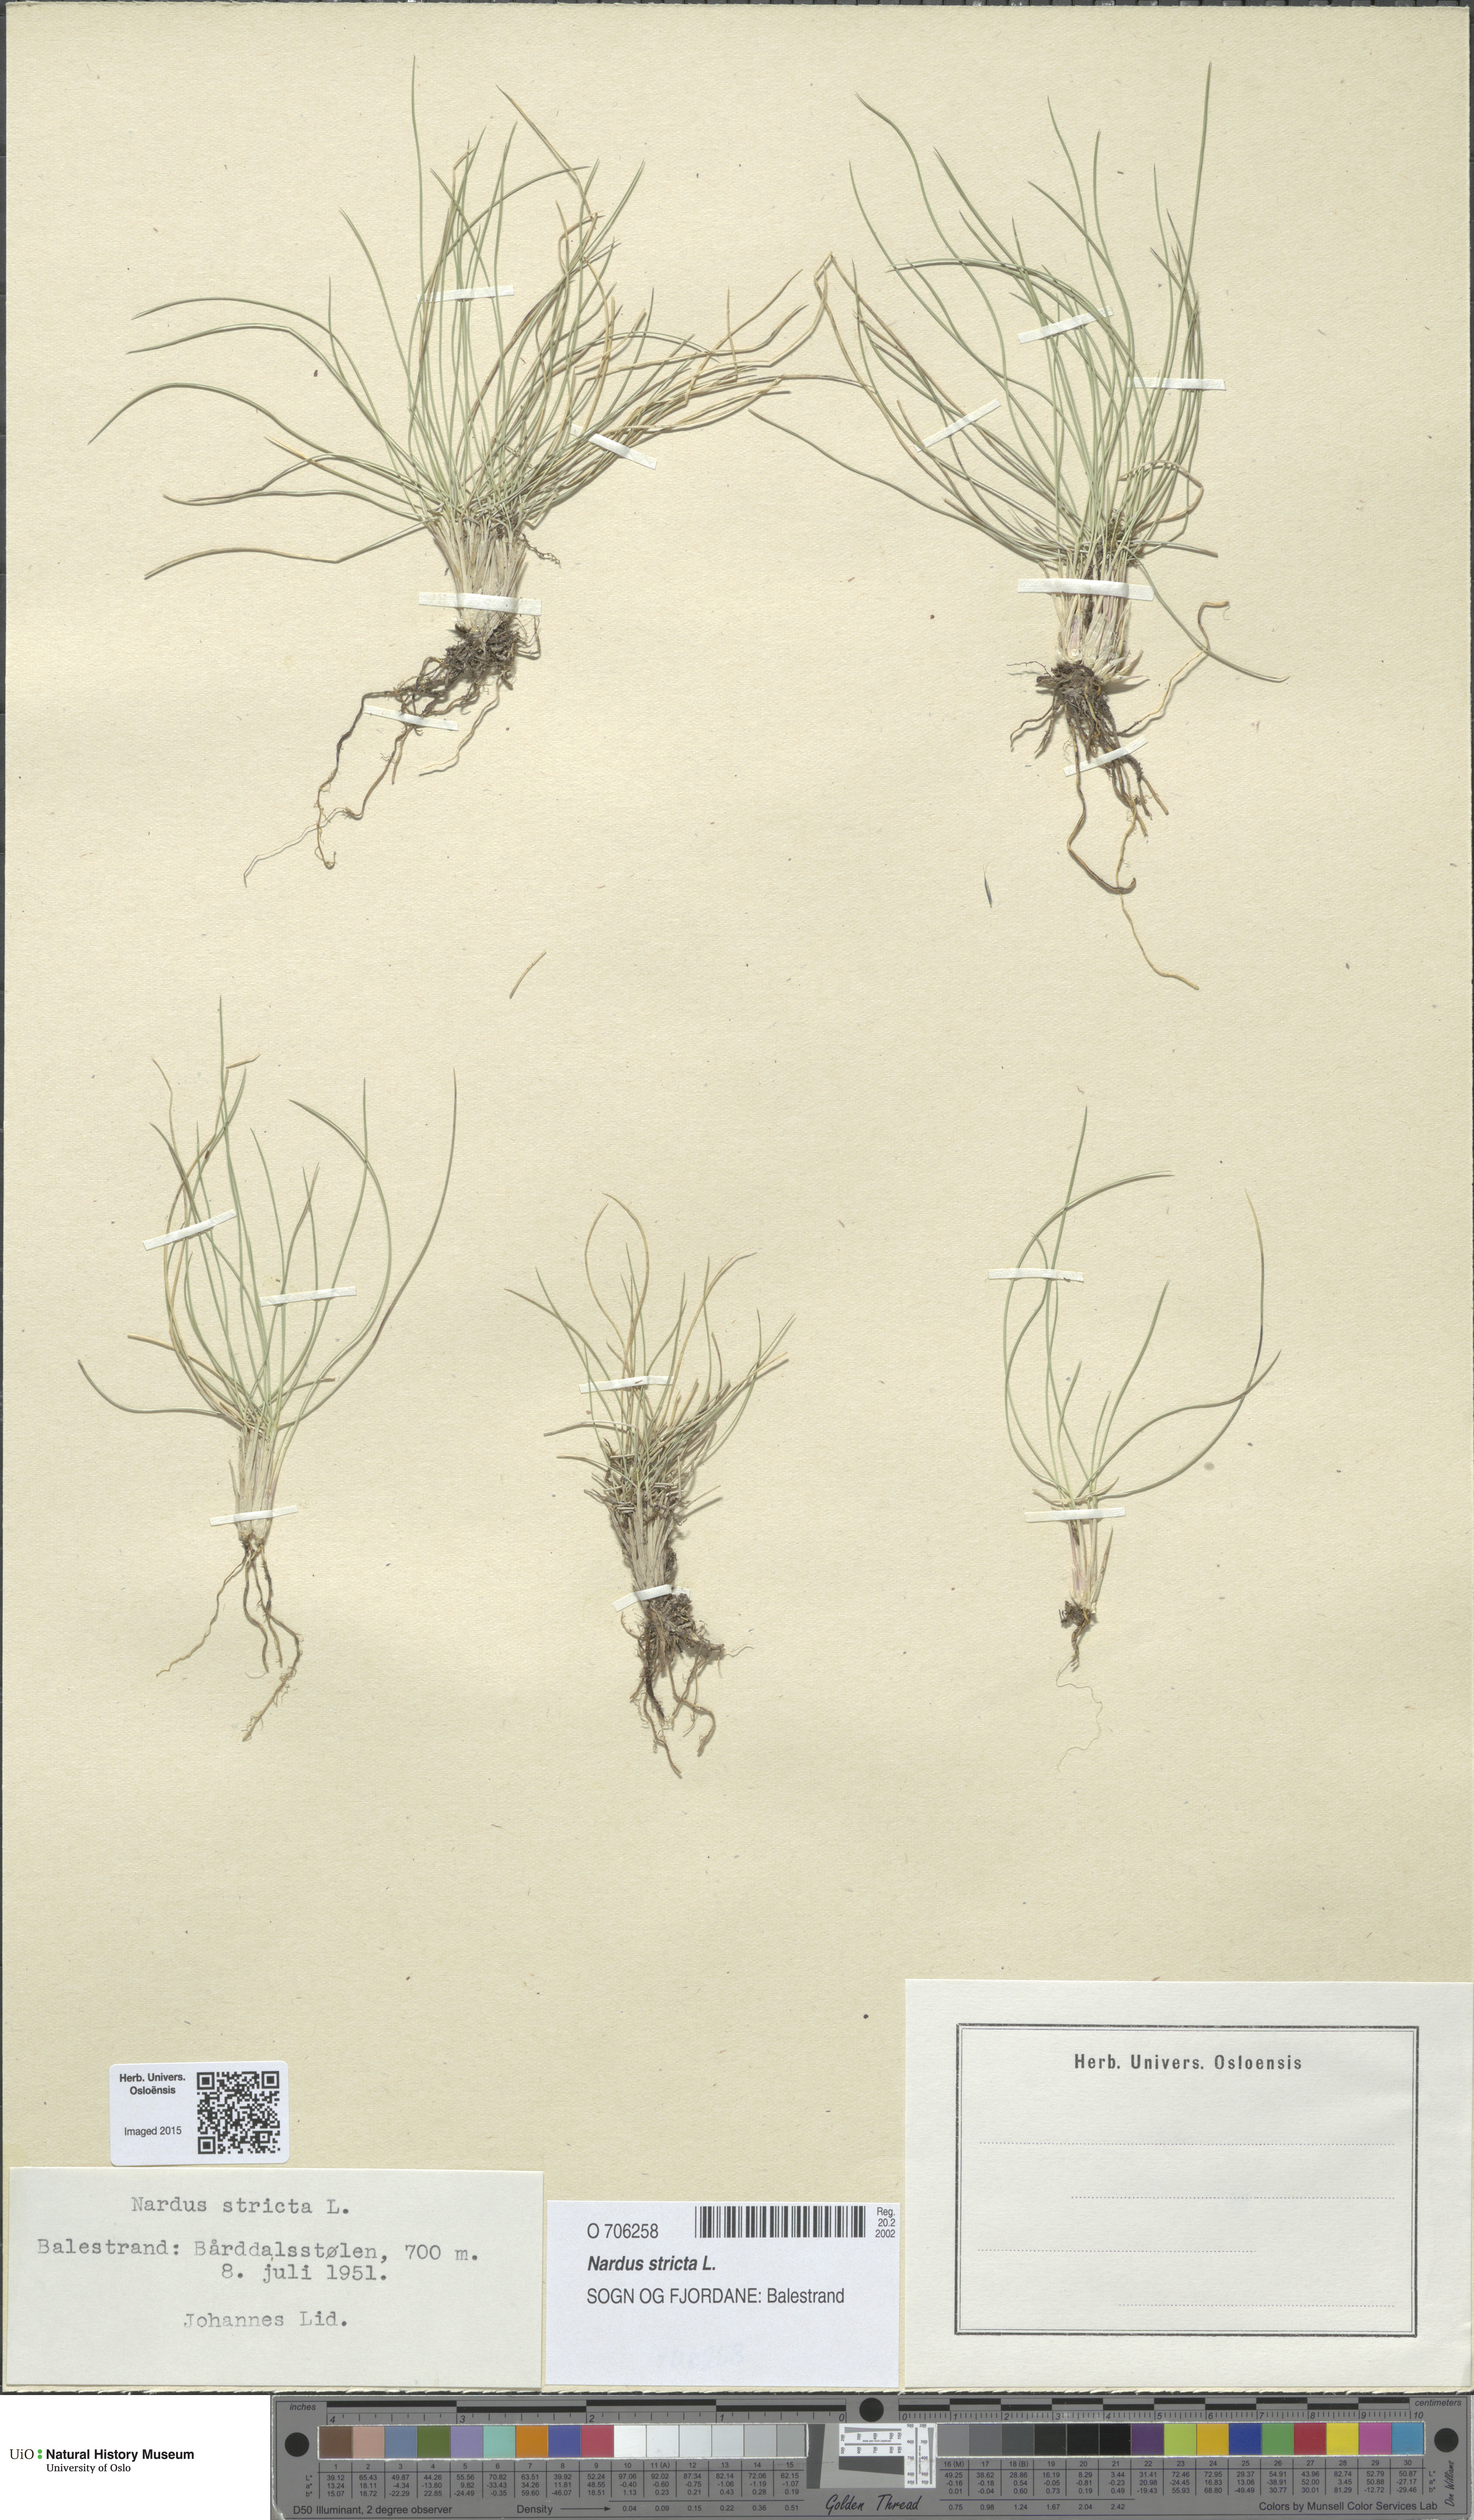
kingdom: Plantae
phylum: Tracheophyta
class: Liliopsida
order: Poales
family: Poaceae
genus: Nardus
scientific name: Nardus stricta
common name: Mat-grass
